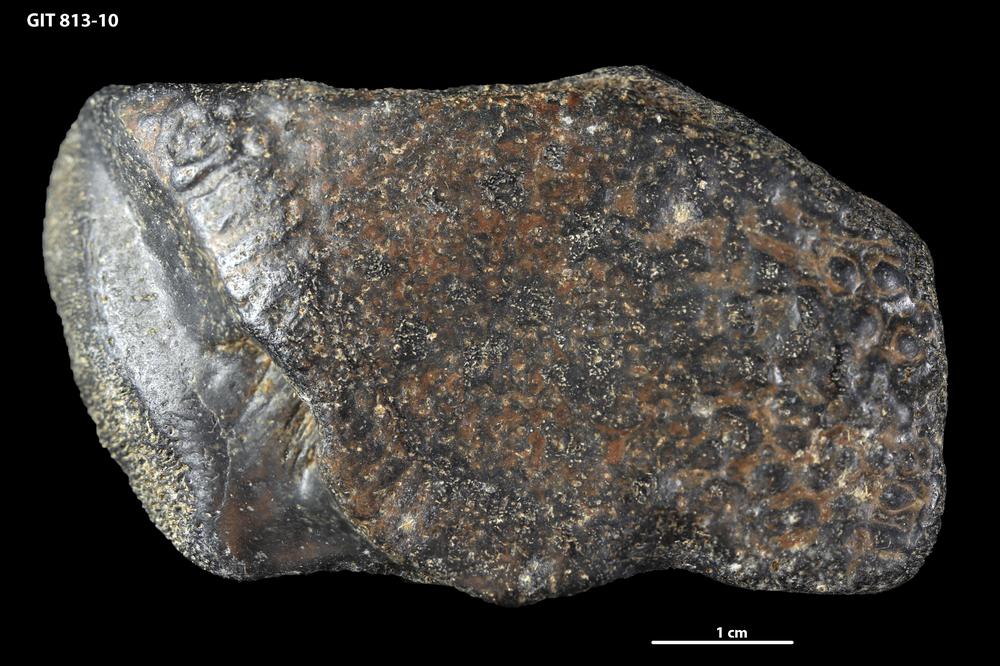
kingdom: Animalia
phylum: Chordata
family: Actinolepididae
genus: Actinolepis
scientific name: Actinolepis
